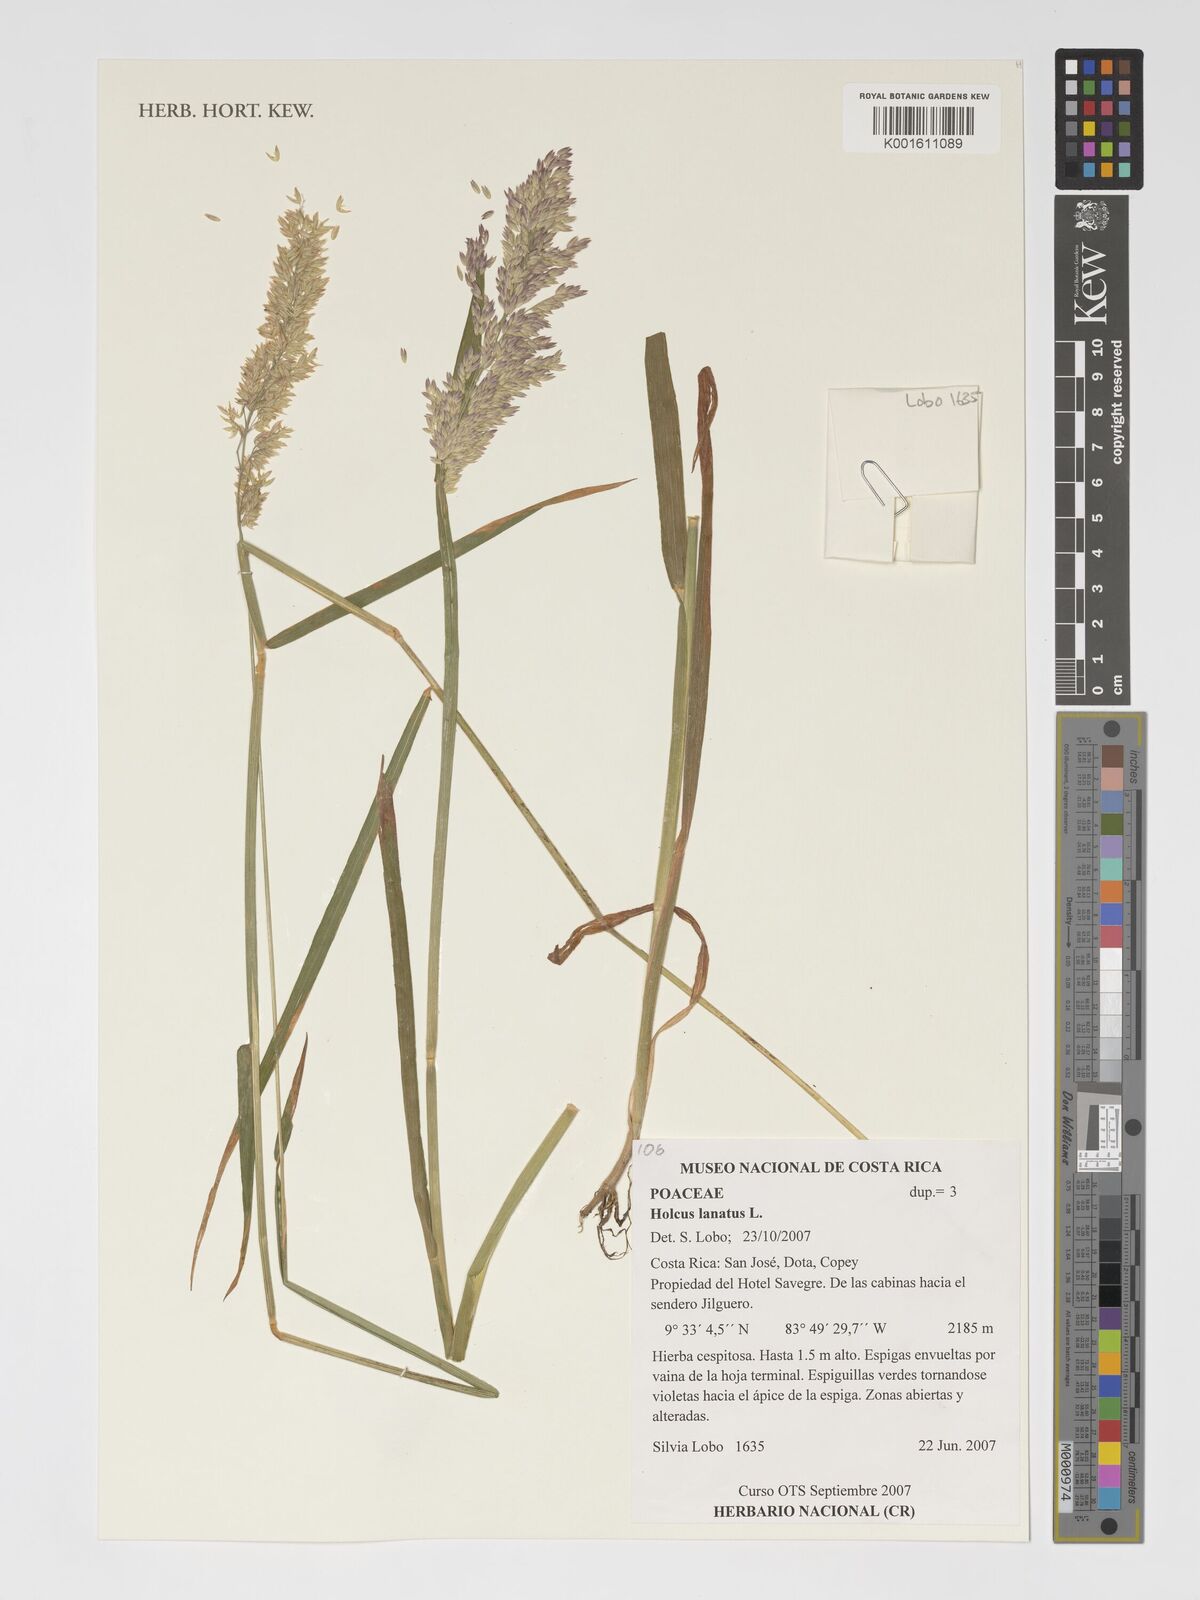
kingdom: Plantae
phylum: Tracheophyta
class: Liliopsida
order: Poales
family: Poaceae
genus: Holcus
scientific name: Holcus lanatus
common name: Yorkshire-fog
